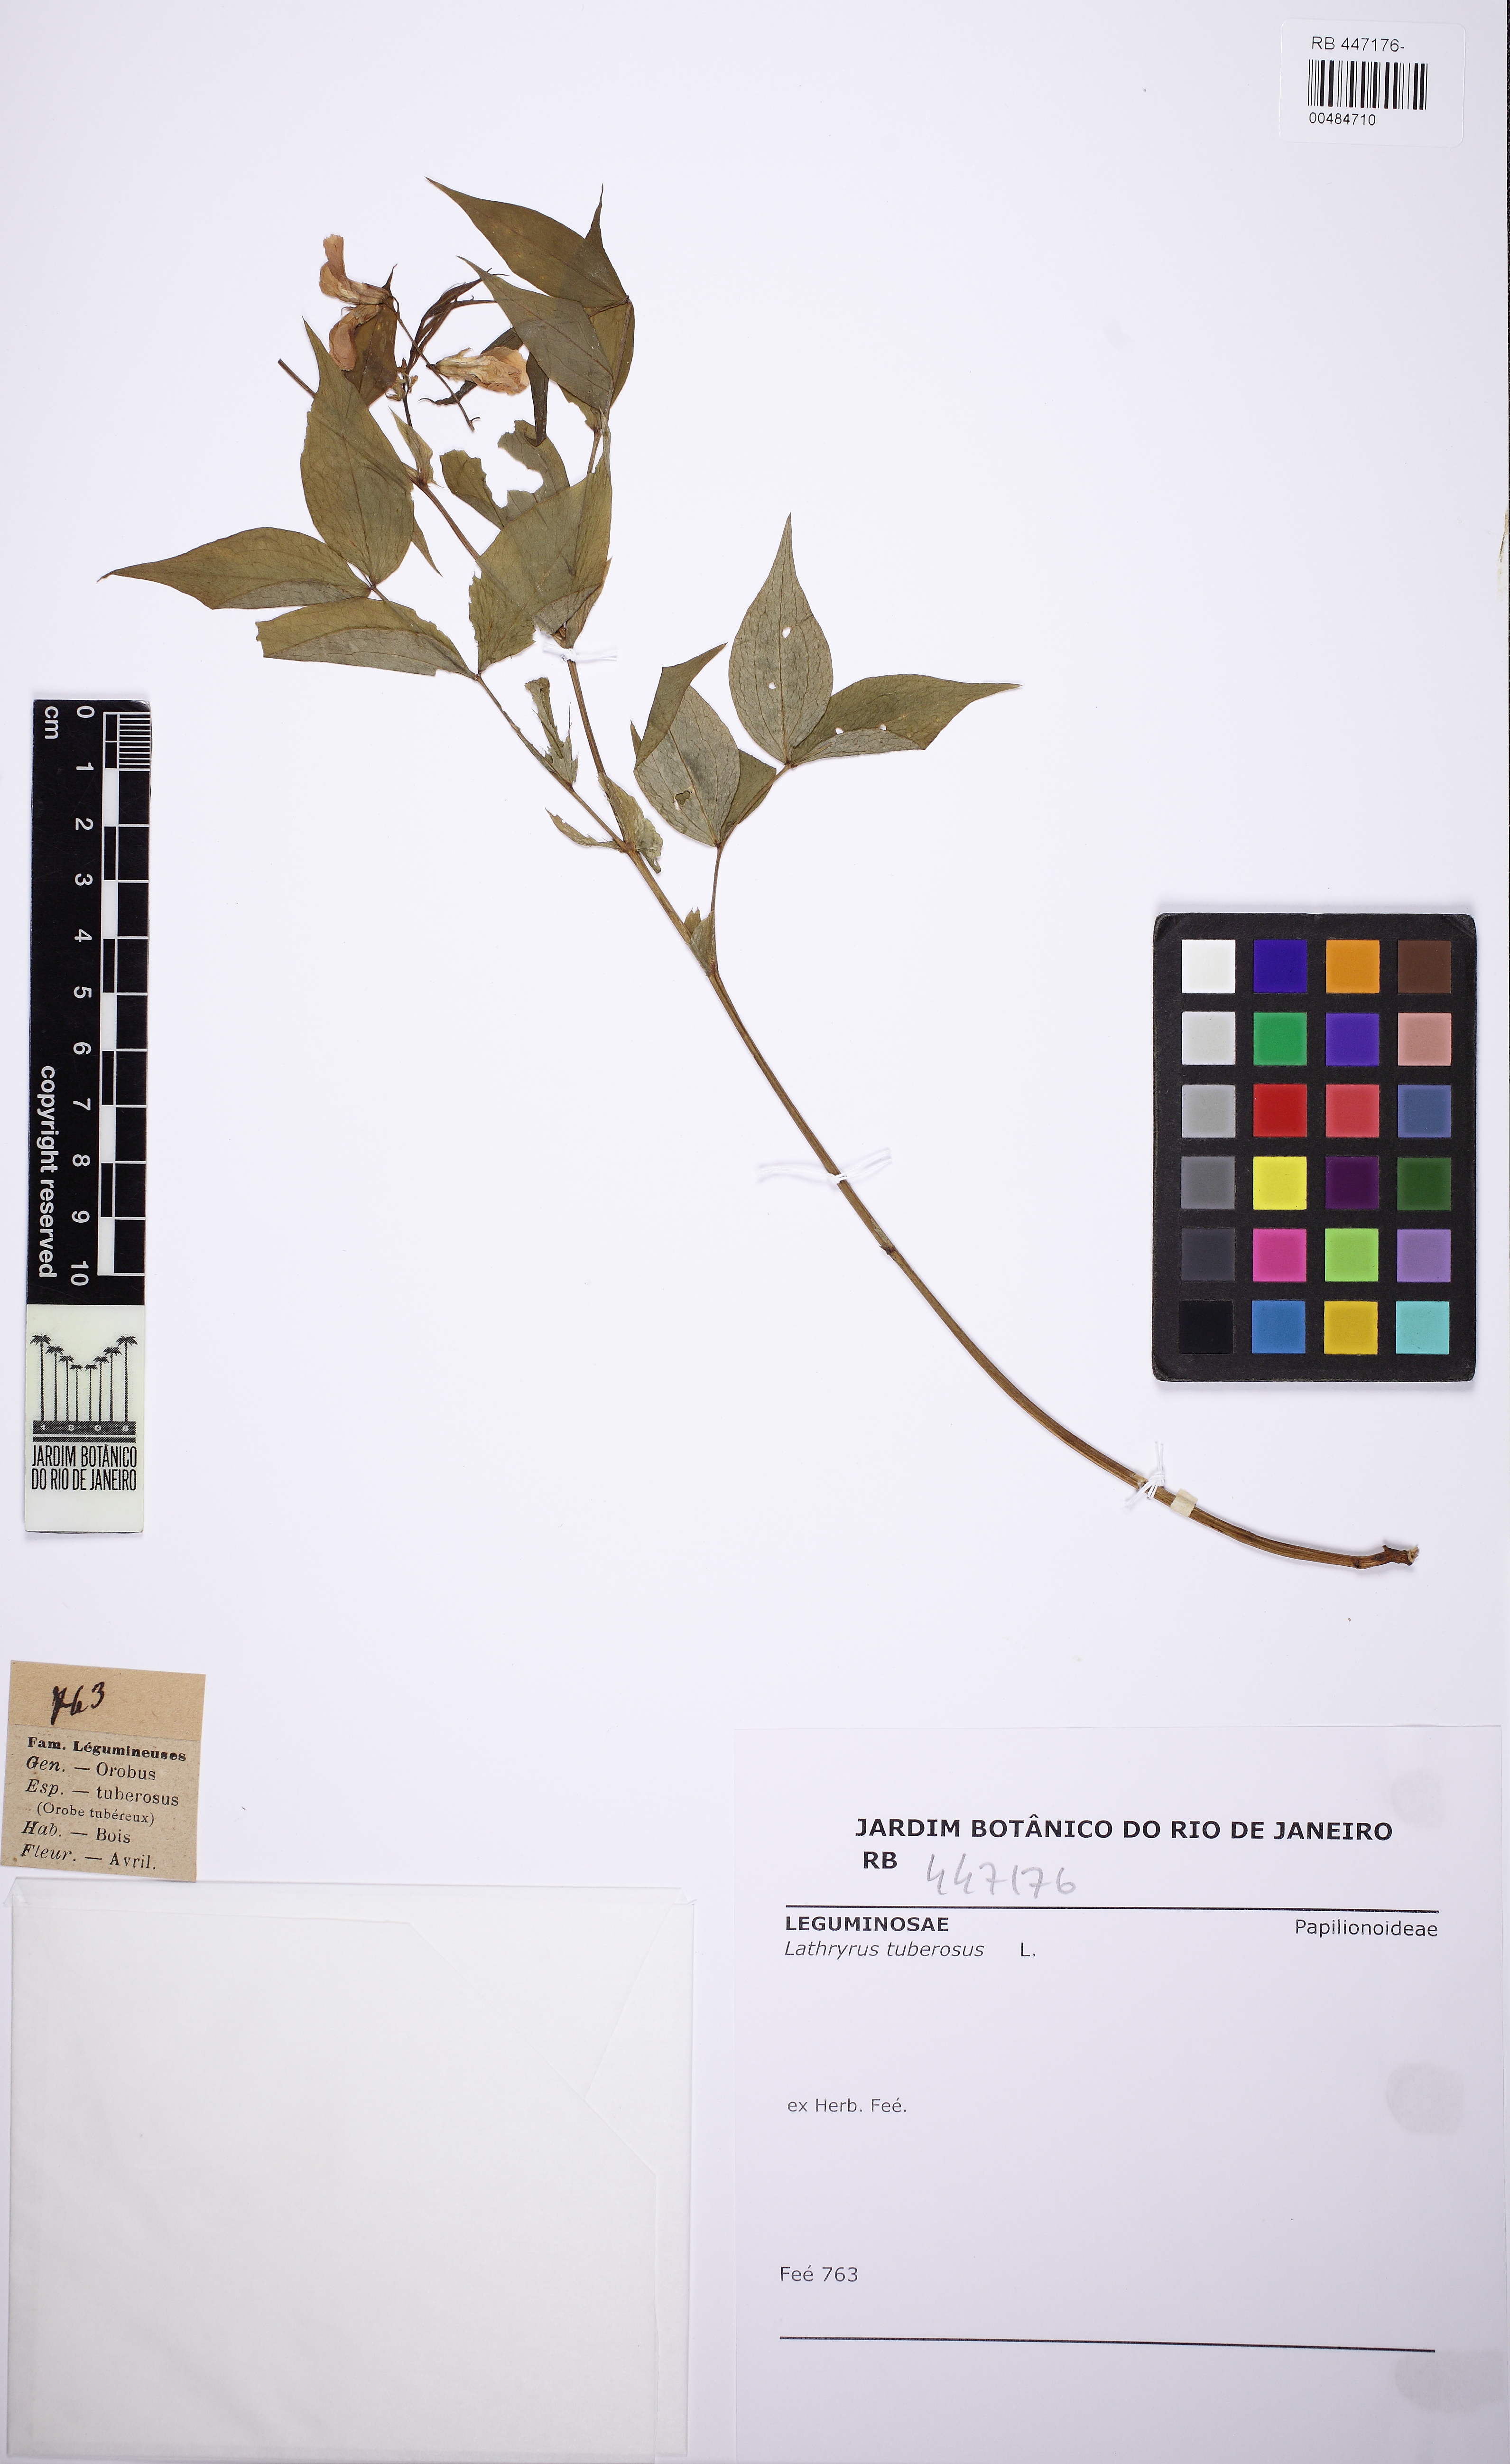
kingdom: Plantae
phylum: Tracheophyta
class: Magnoliopsida
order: Fabales
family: Fabaceae
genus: Lathyrus
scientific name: Lathyrus tuberosus
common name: Tuberous pea
